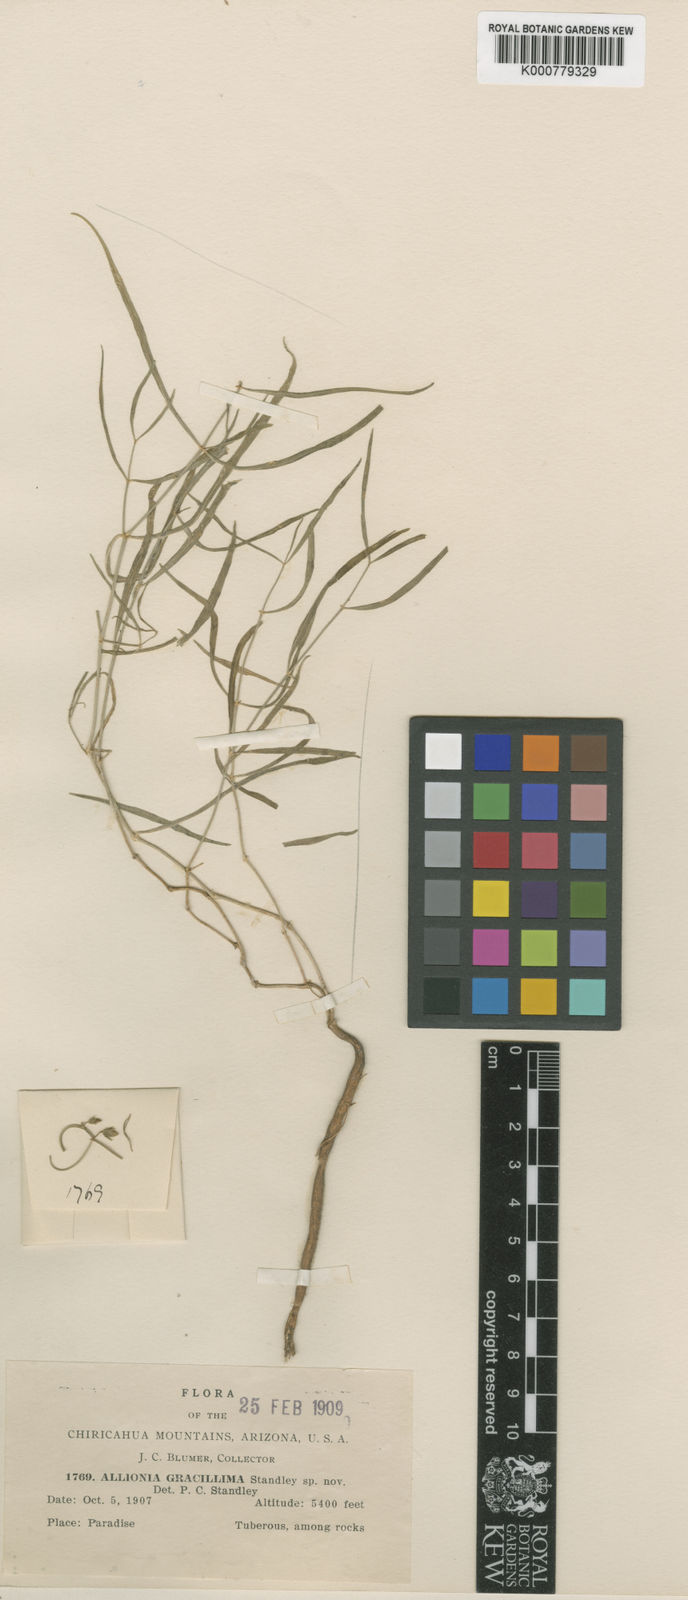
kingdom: Plantae
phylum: Tracheophyta
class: Magnoliopsida
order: Caryophyllales
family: Nyctaginaceae
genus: Mirabilis
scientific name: Mirabilis comata
